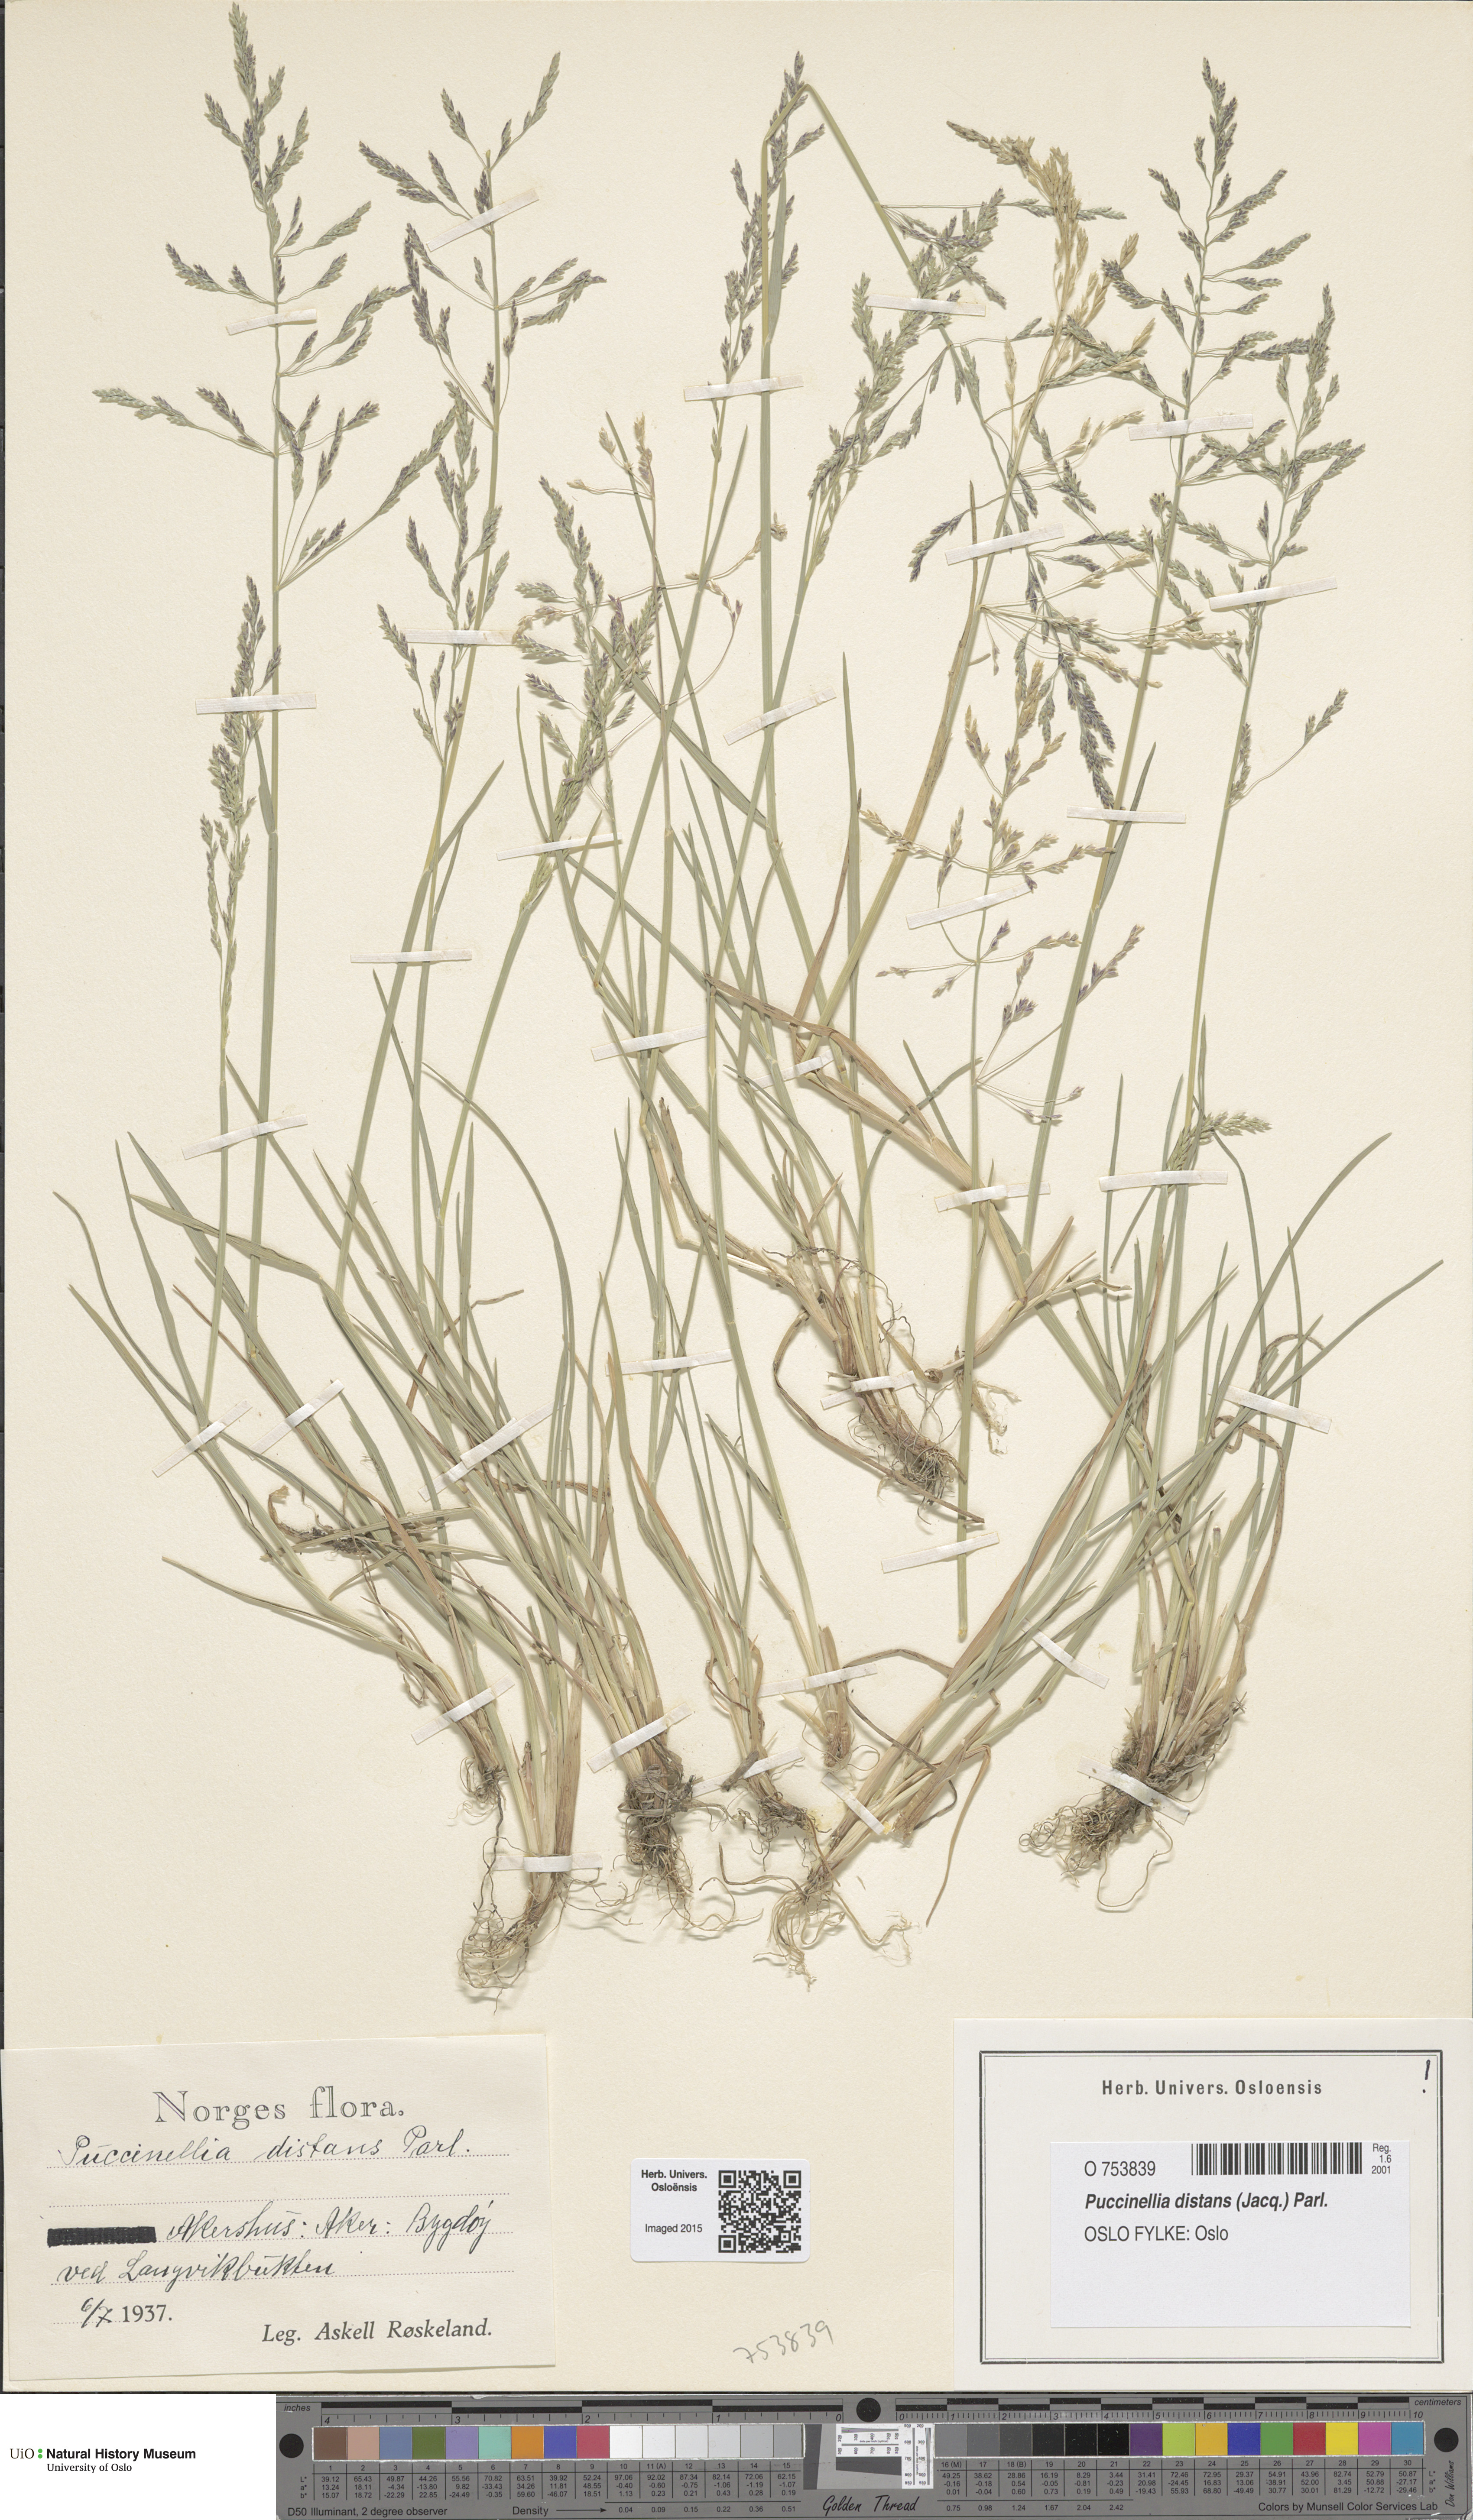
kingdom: Plantae
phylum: Tracheophyta
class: Liliopsida
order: Poales
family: Poaceae
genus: Puccinellia
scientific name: Puccinellia distans
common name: Weeping alkaligrass
